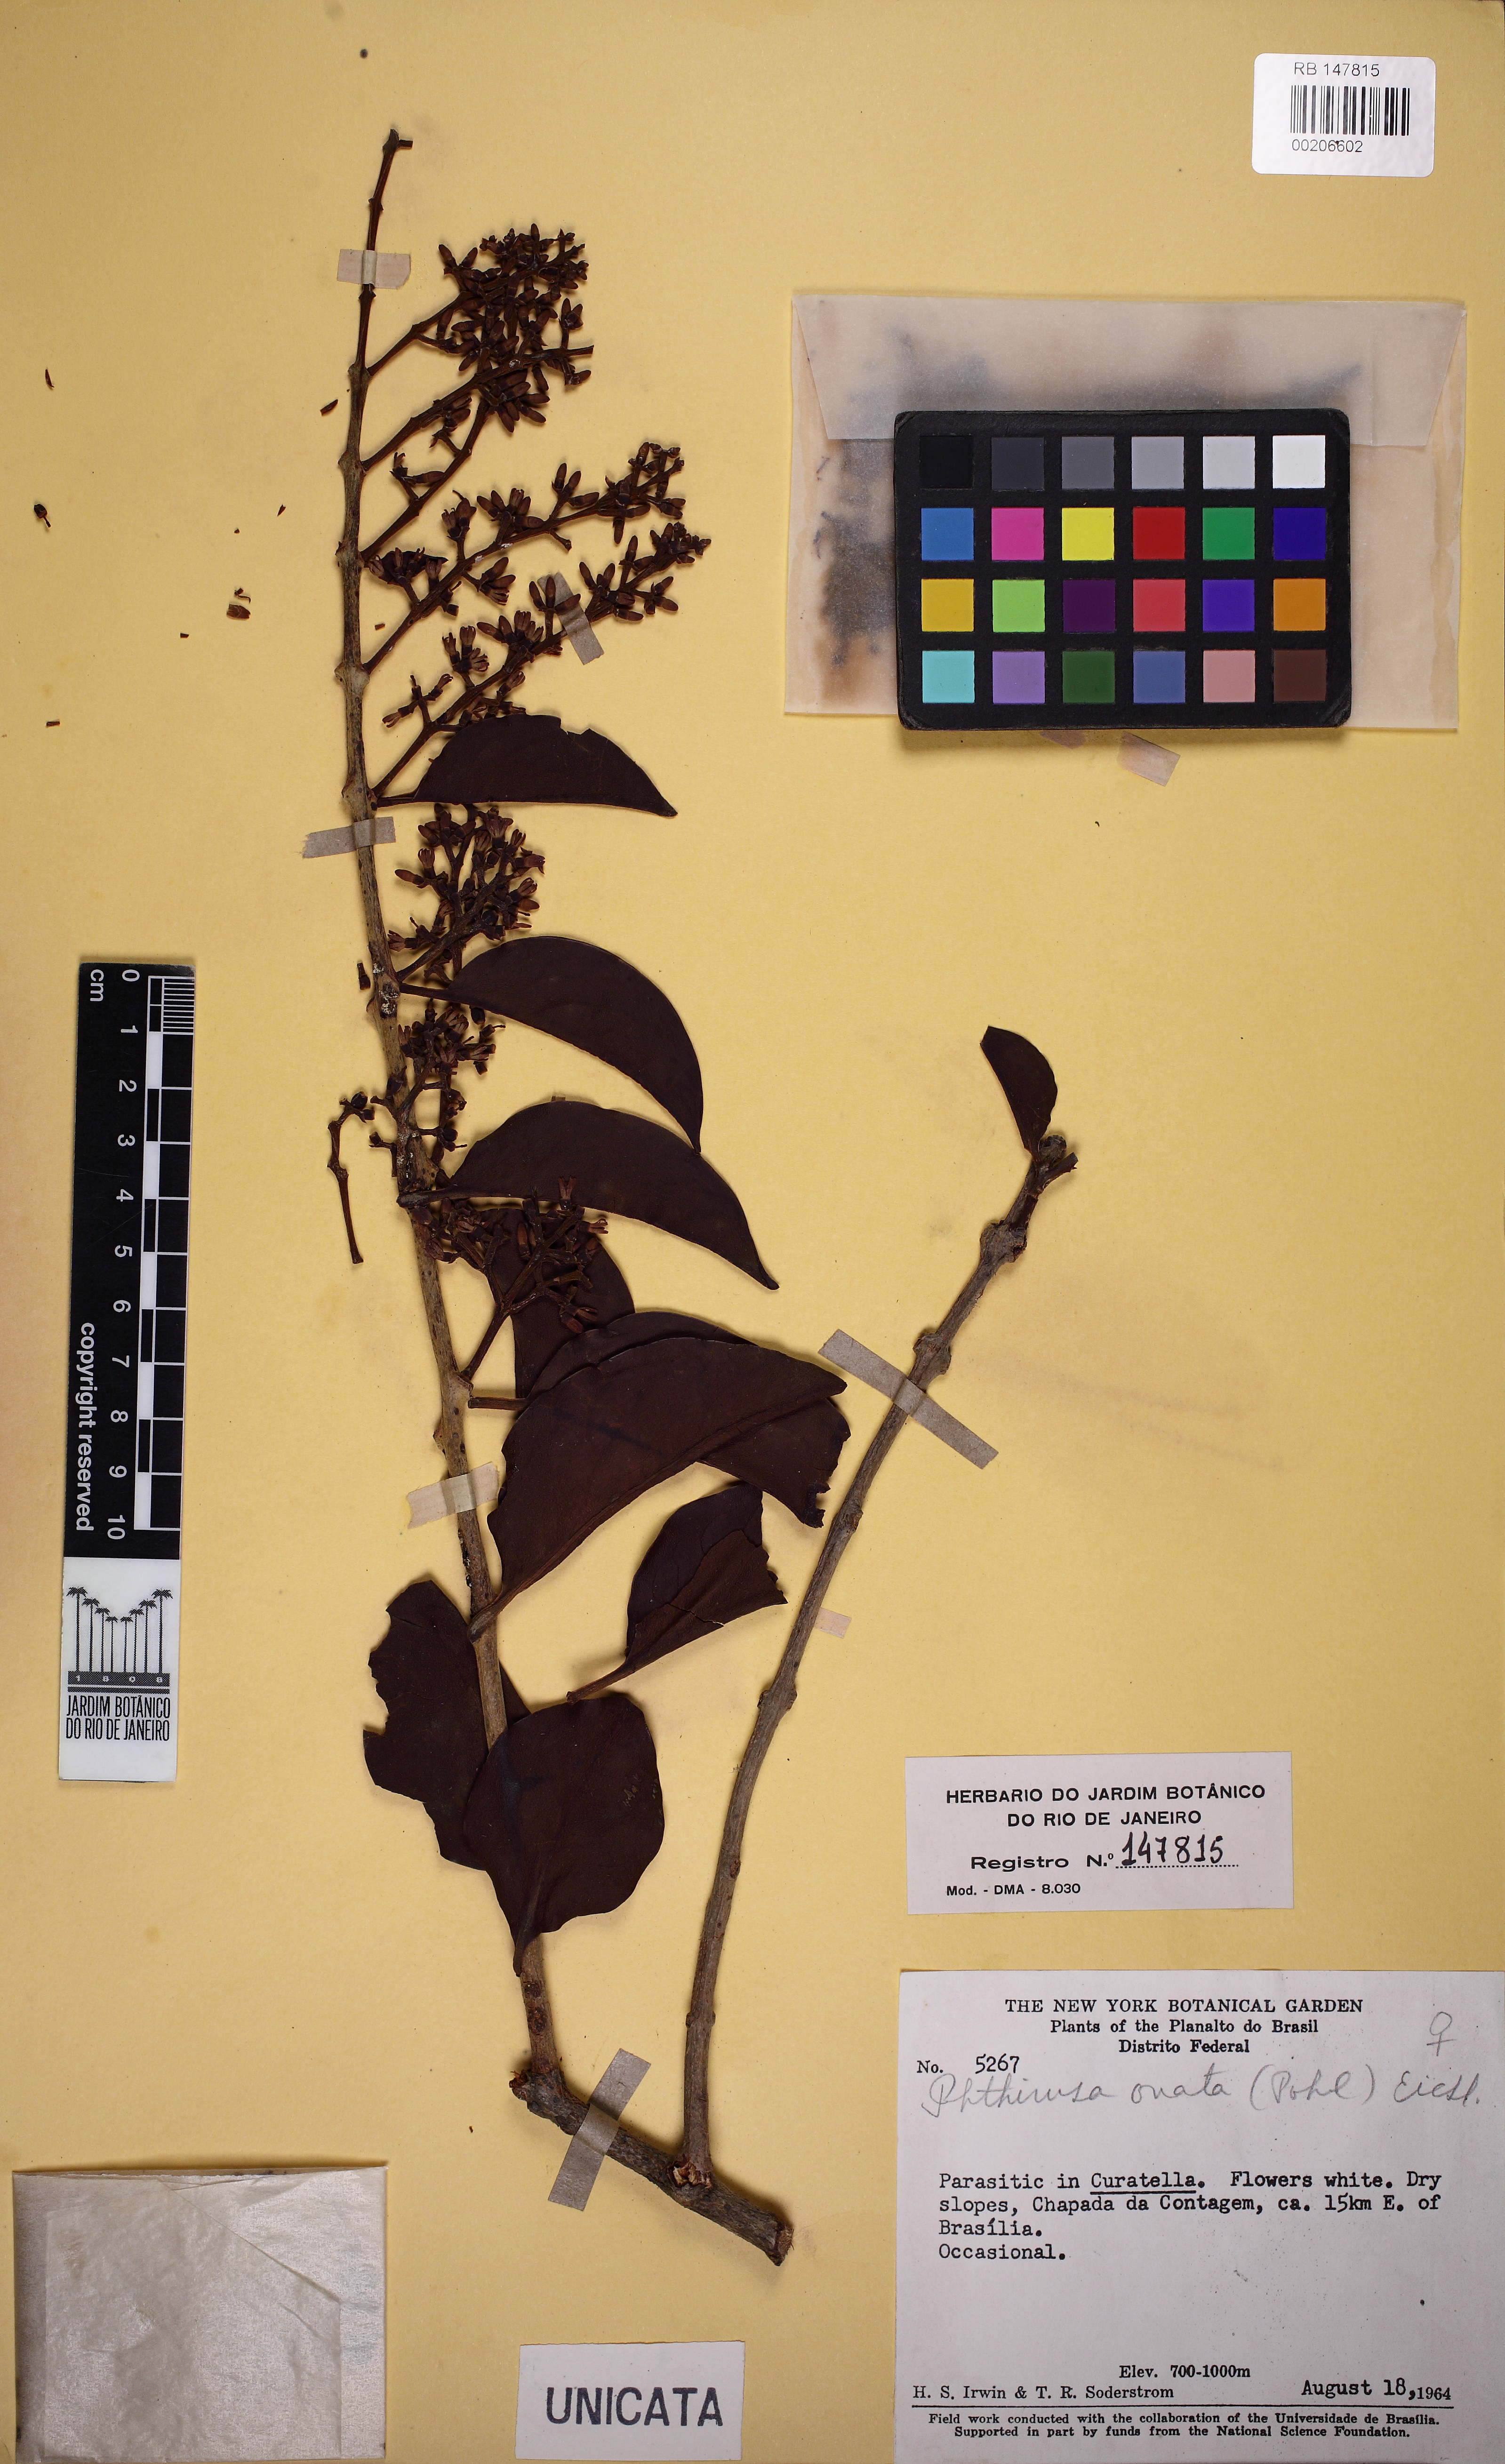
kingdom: Plantae
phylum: Tracheophyta
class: Magnoliopsida
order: Santalales
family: Loranthaceae
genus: Passovia
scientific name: Passovia ovata
